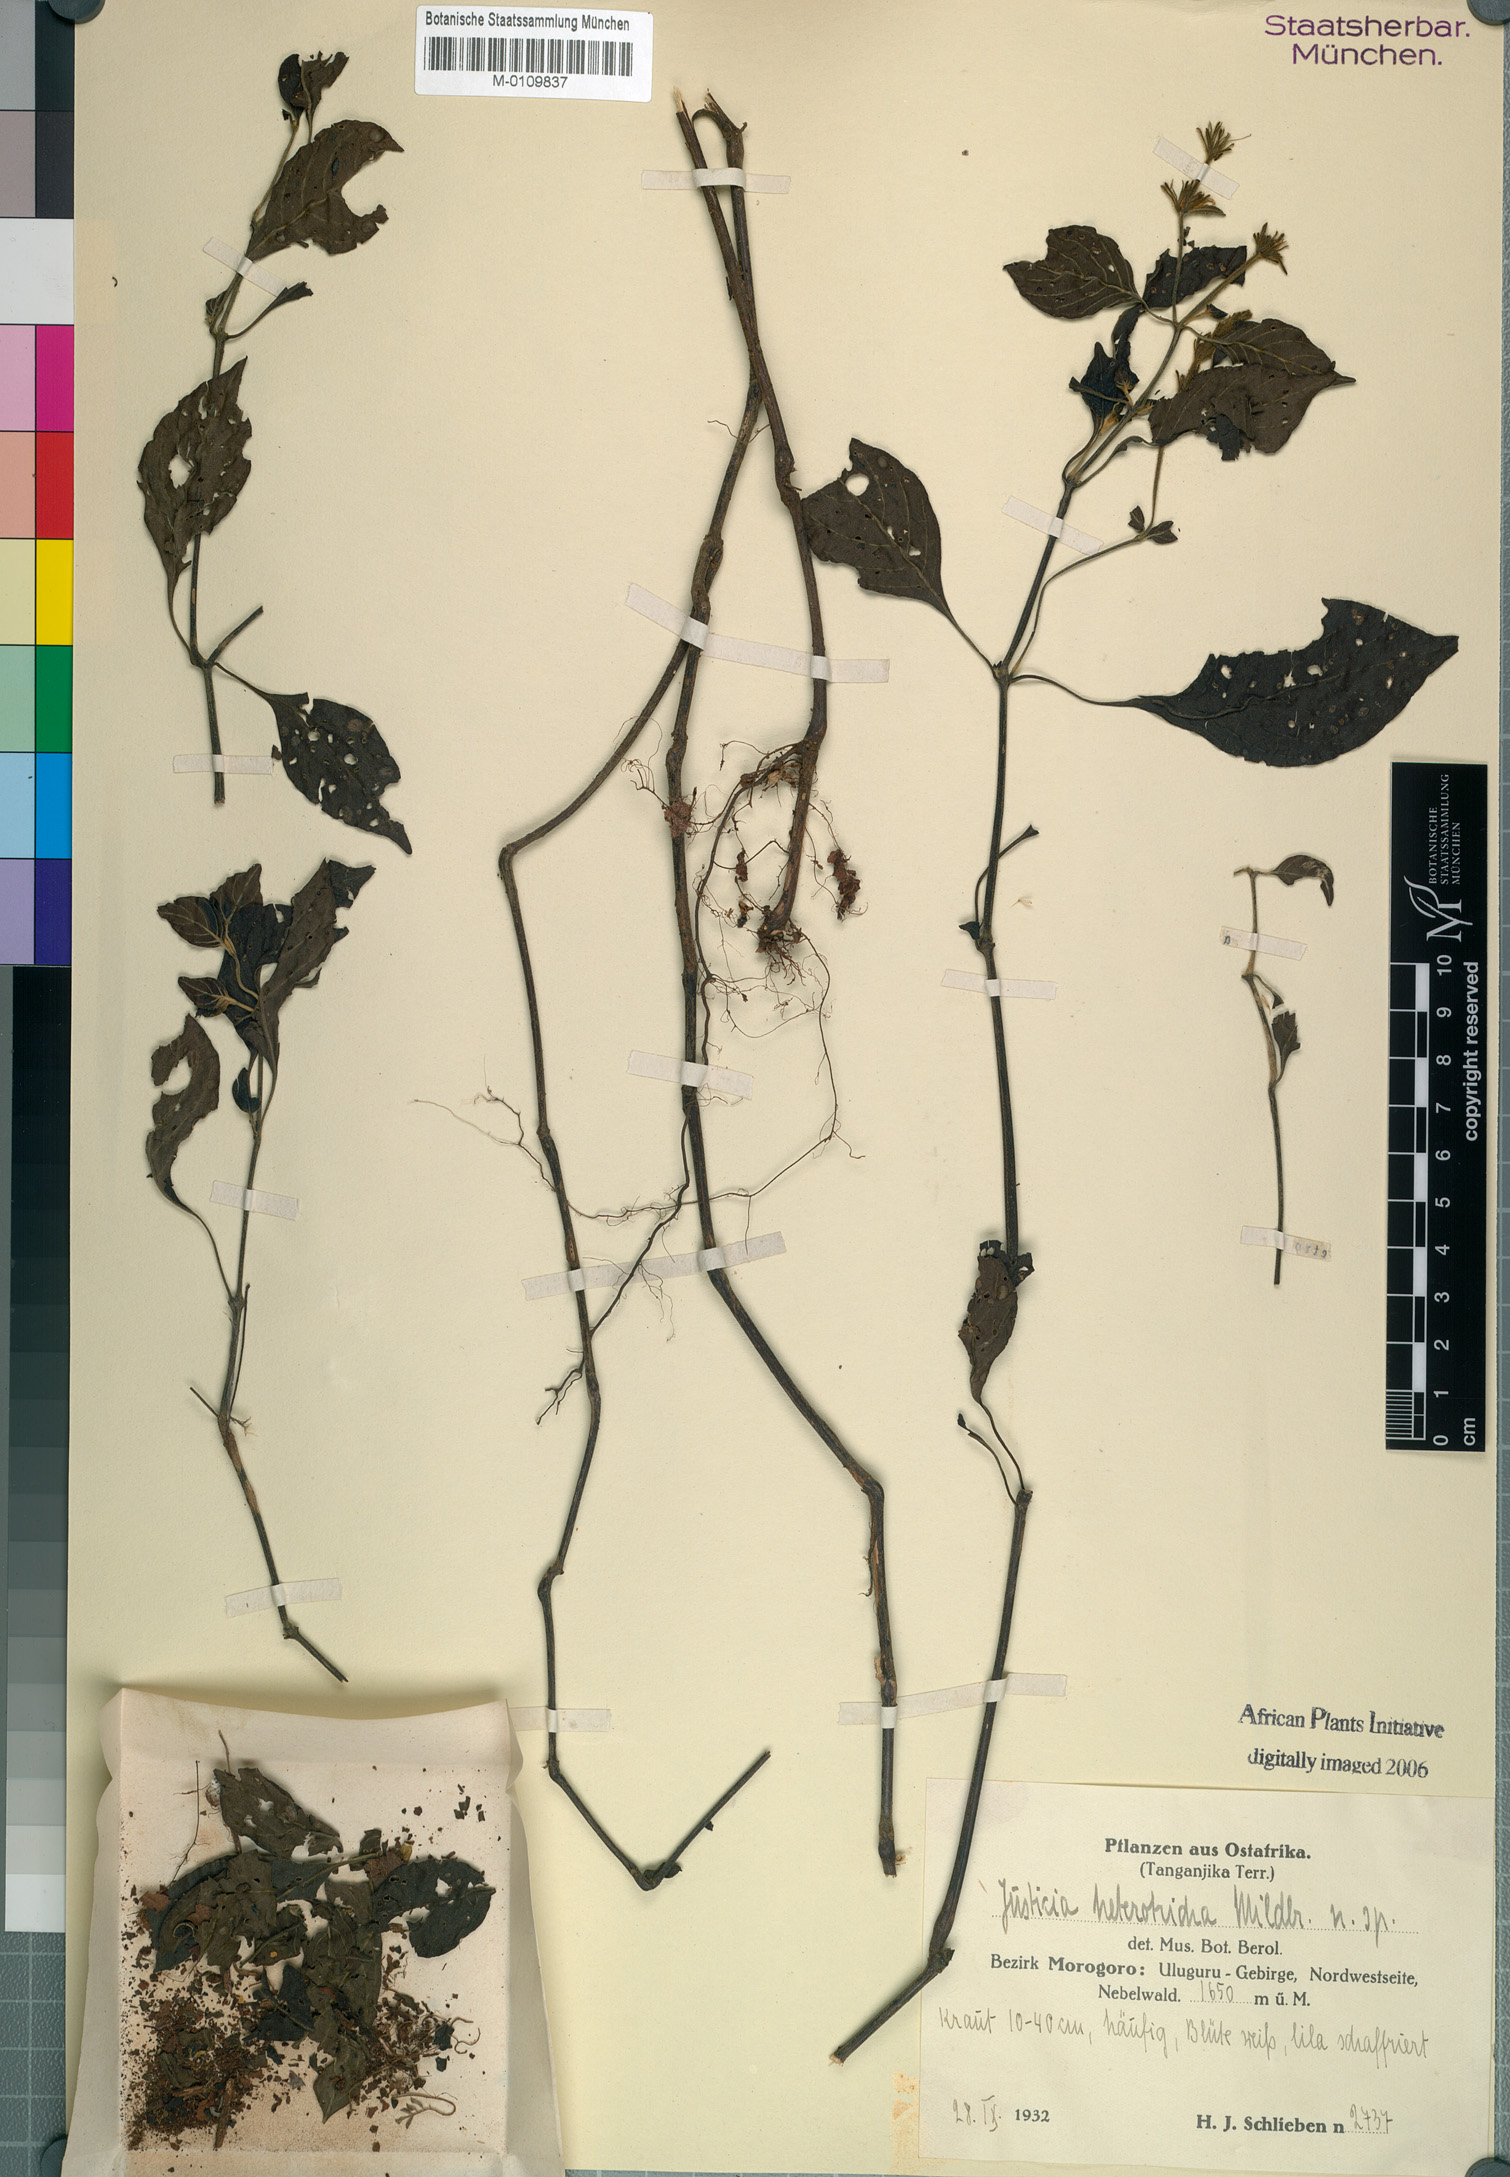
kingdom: Plantae
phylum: Tracheophyta
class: Magnoliopsida
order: Lamiales
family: Acanthaceae
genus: Justicia
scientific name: Justicia heterotricha
